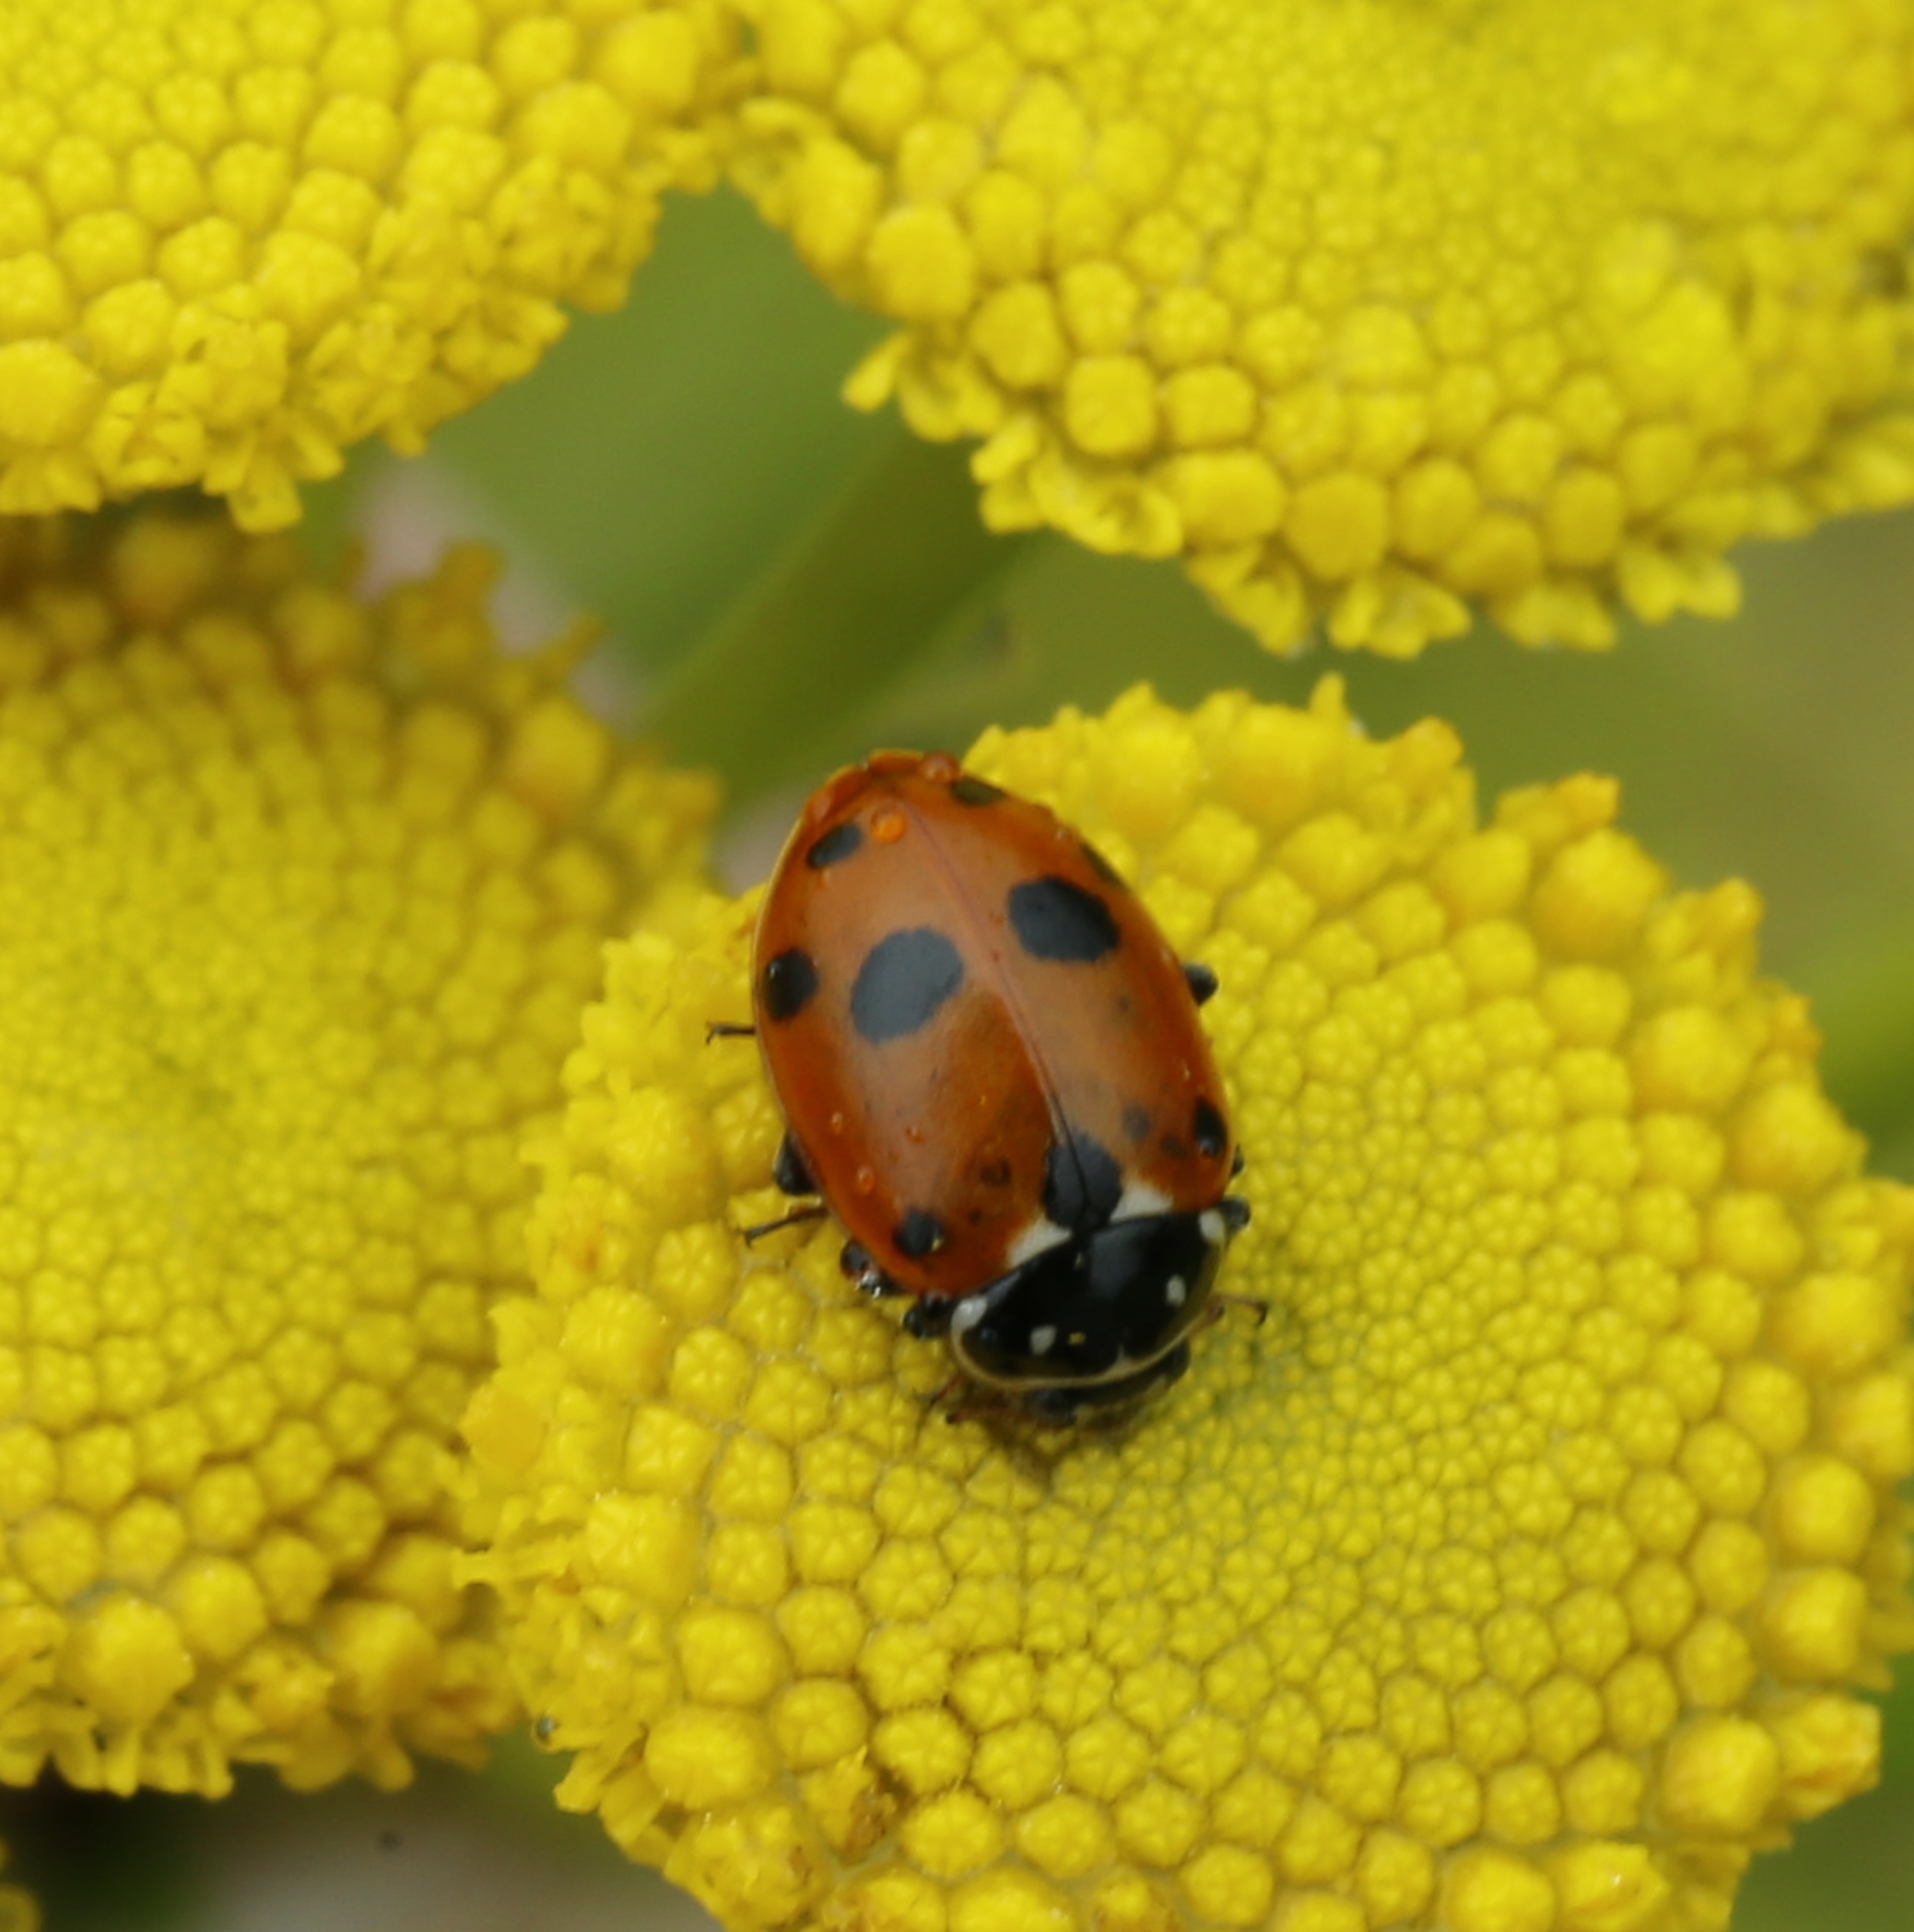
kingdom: Animalia
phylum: Arthropoda
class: Insecta
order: Coleoptera
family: Coccinellidae
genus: Hippodamia
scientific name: Hippodamia variegata
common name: Adonis' mariehøne
